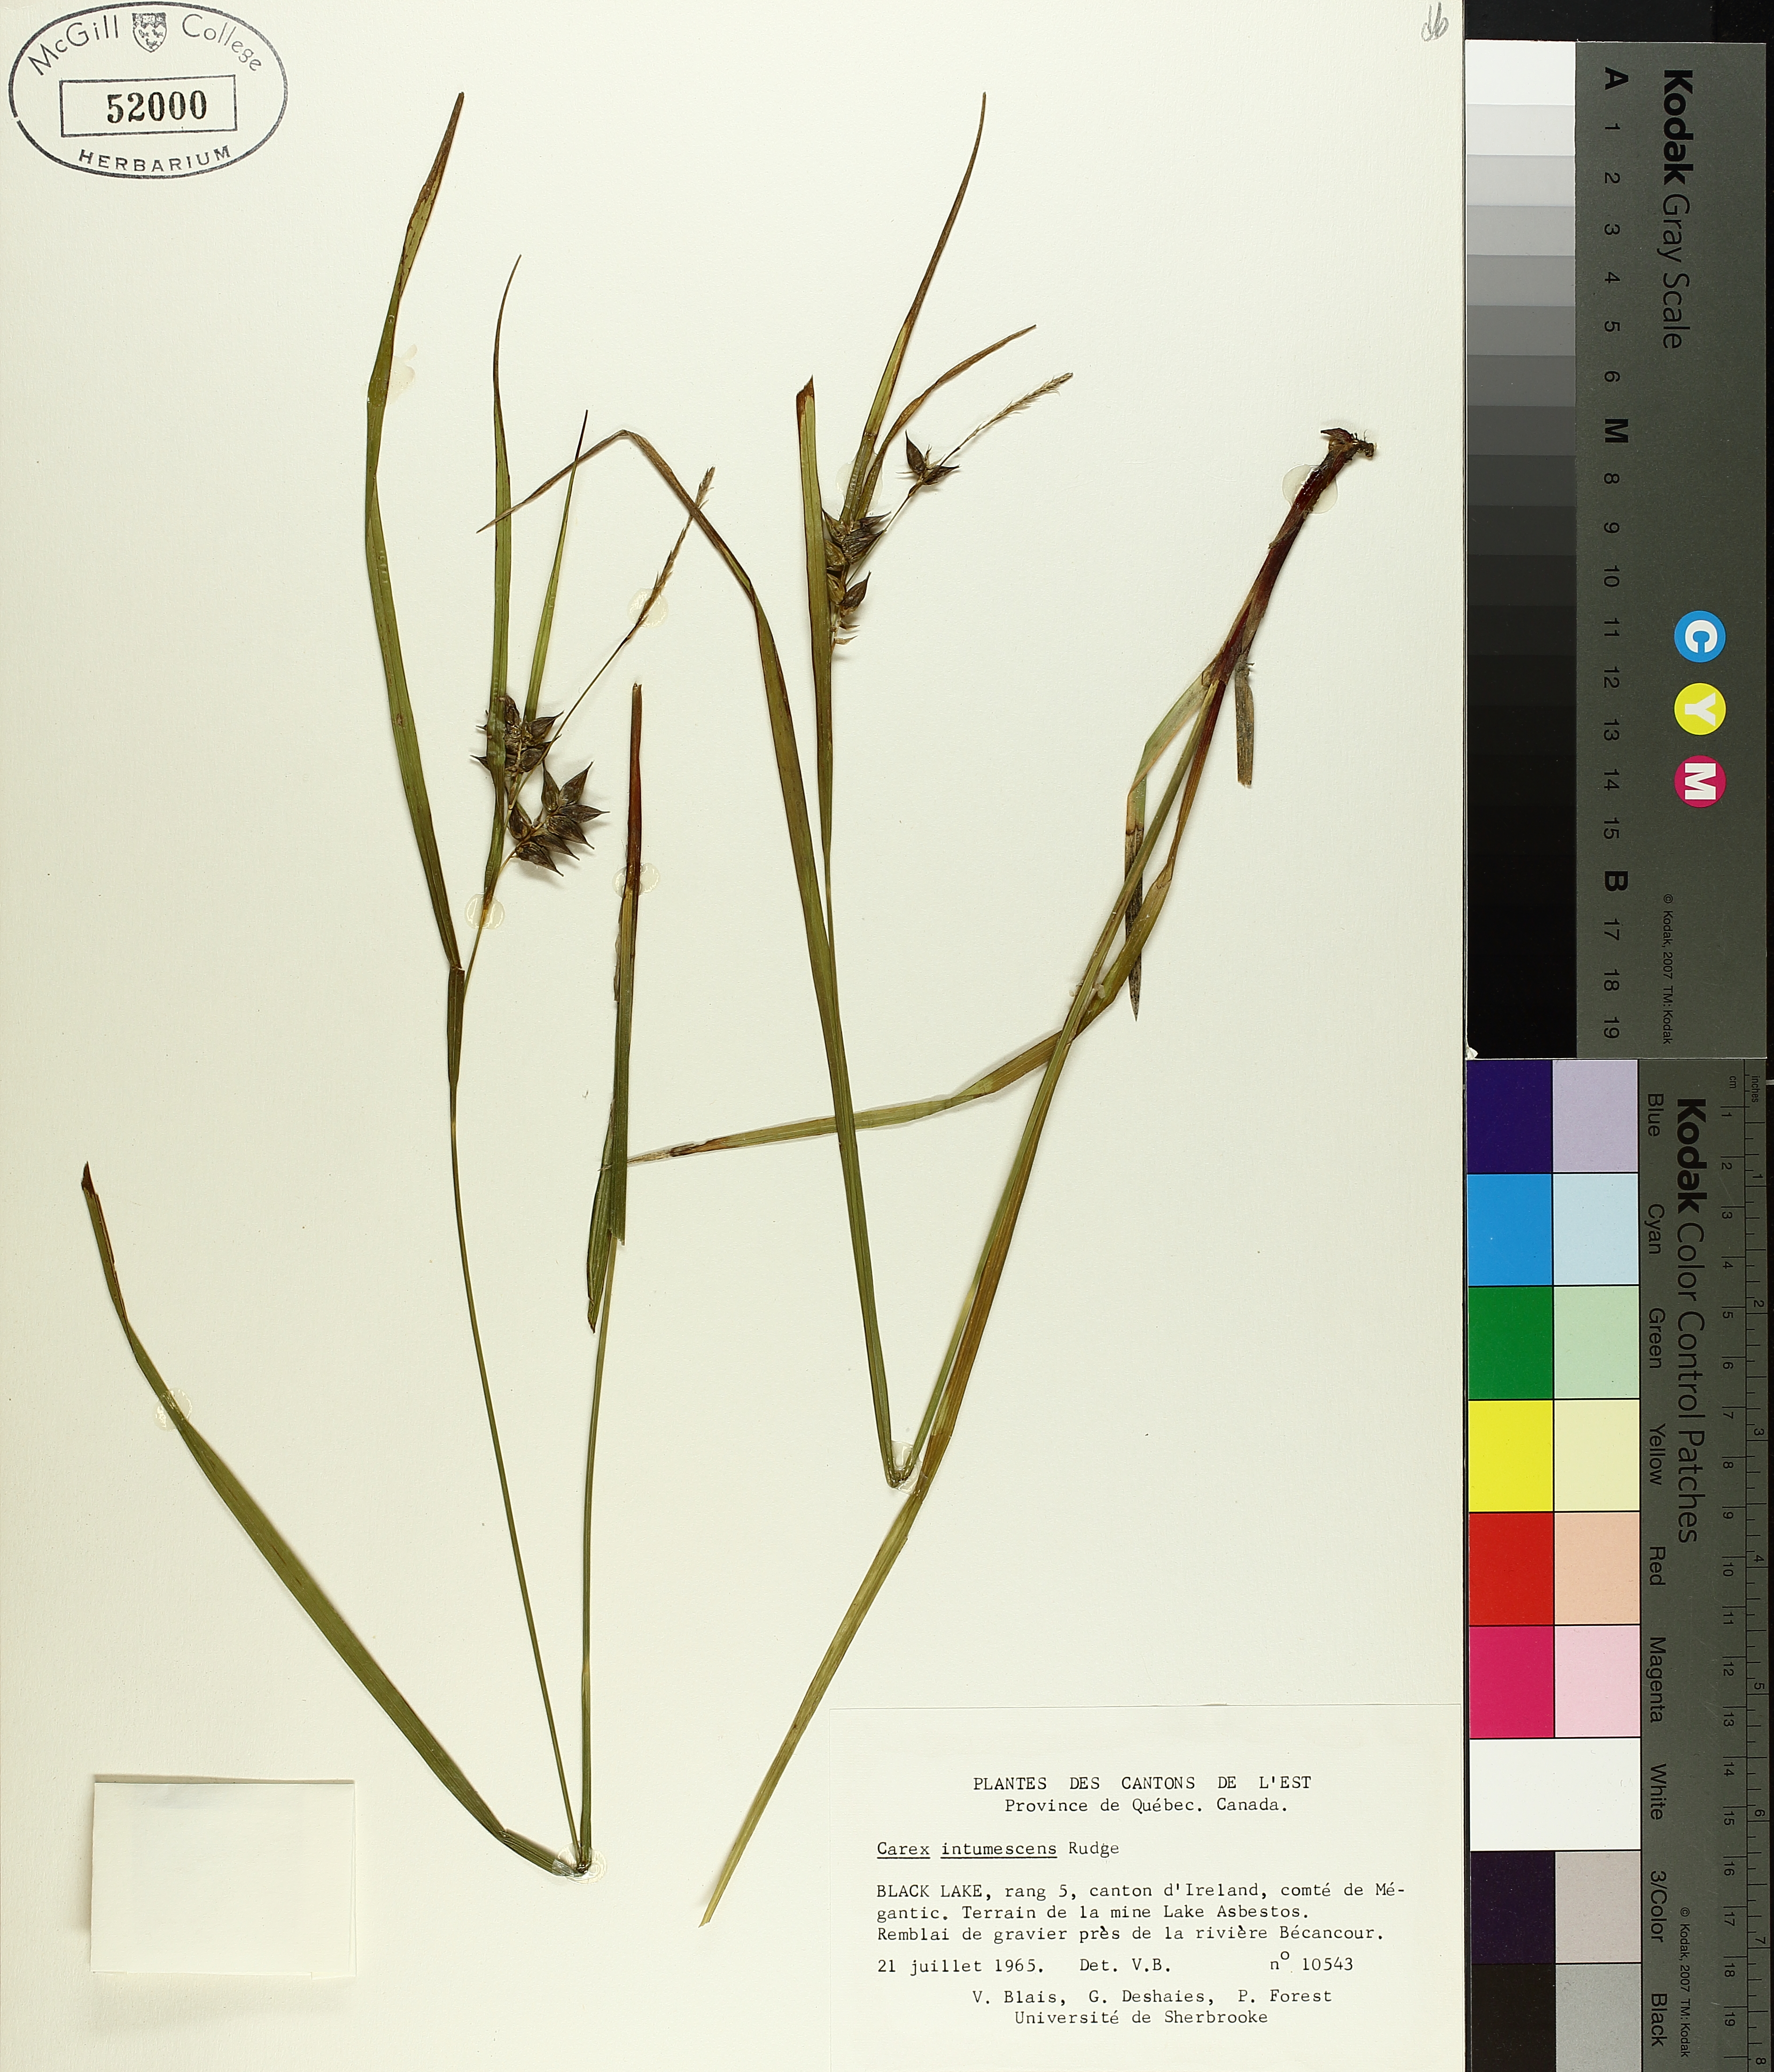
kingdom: Plantae
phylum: Tracheophyta
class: Liliopsida
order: Poales
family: Cyperaceae
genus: Carex
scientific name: Carex intumescens
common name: Greater bladder sedge
